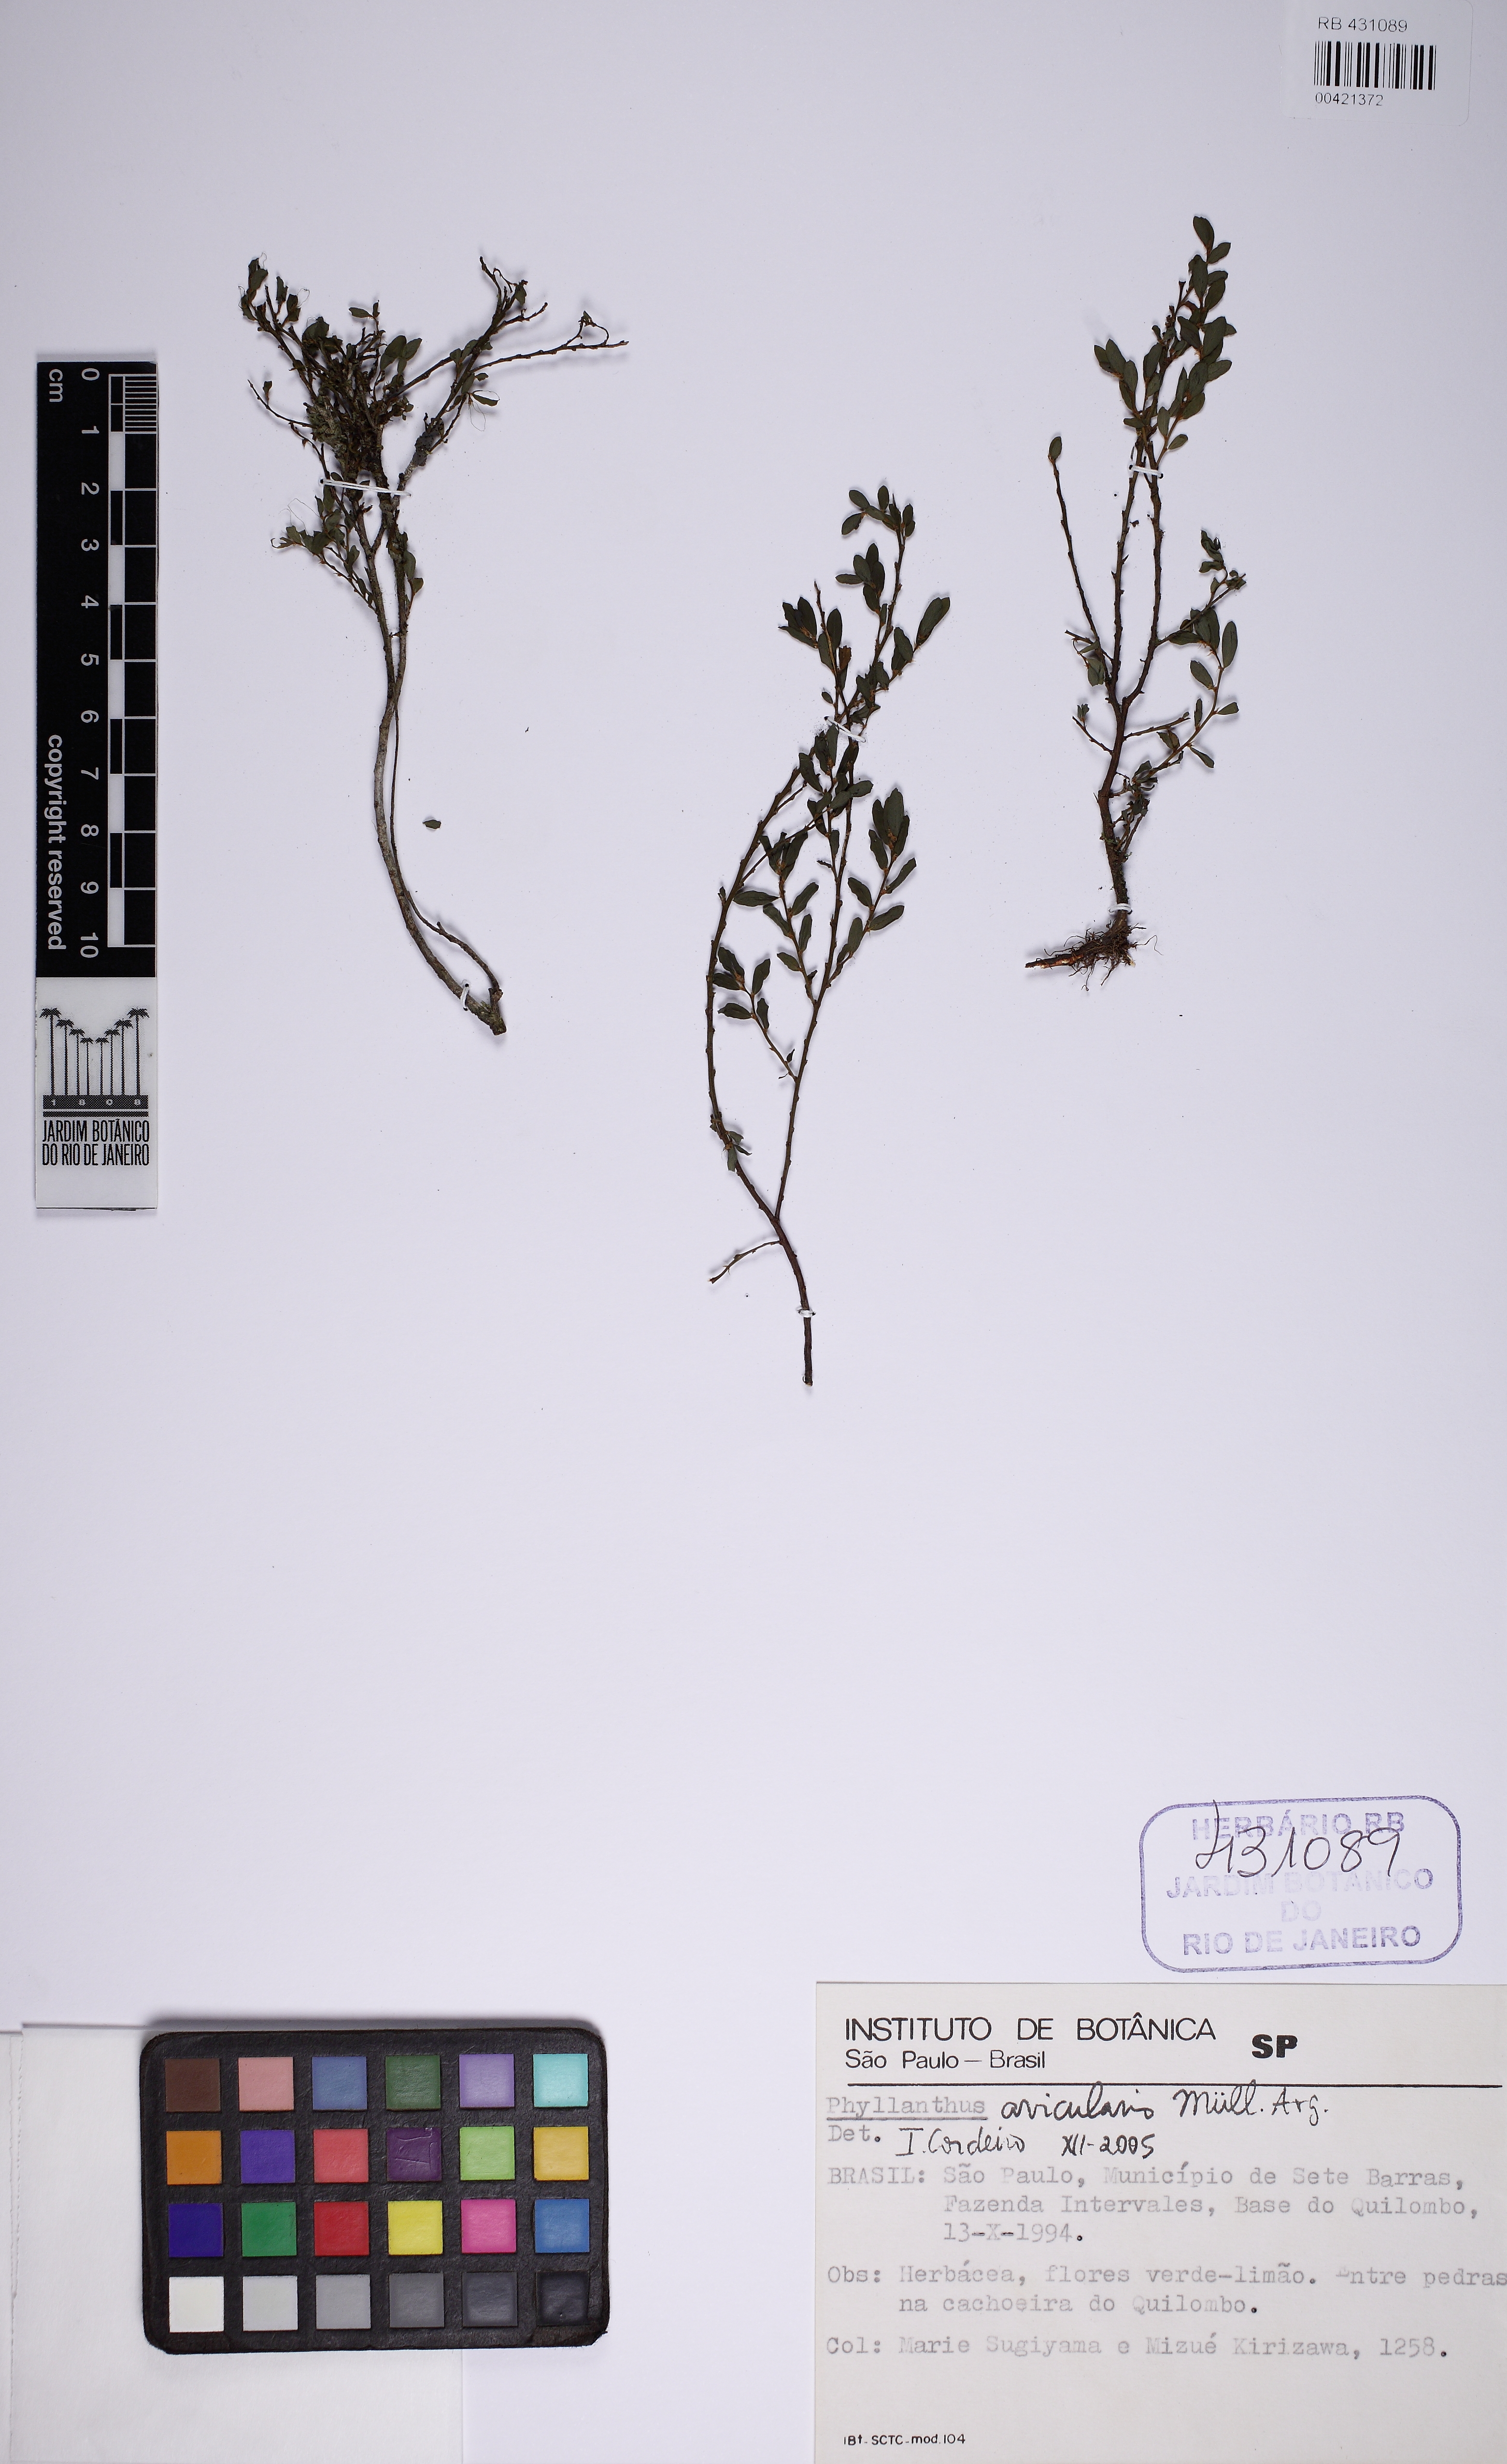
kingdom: Plantae
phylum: Tracheophyta
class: Magnoliopsida
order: Malpighiales
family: Phyllanthaceae
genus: Phyllanthus
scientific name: Phyllanthus avicularis
